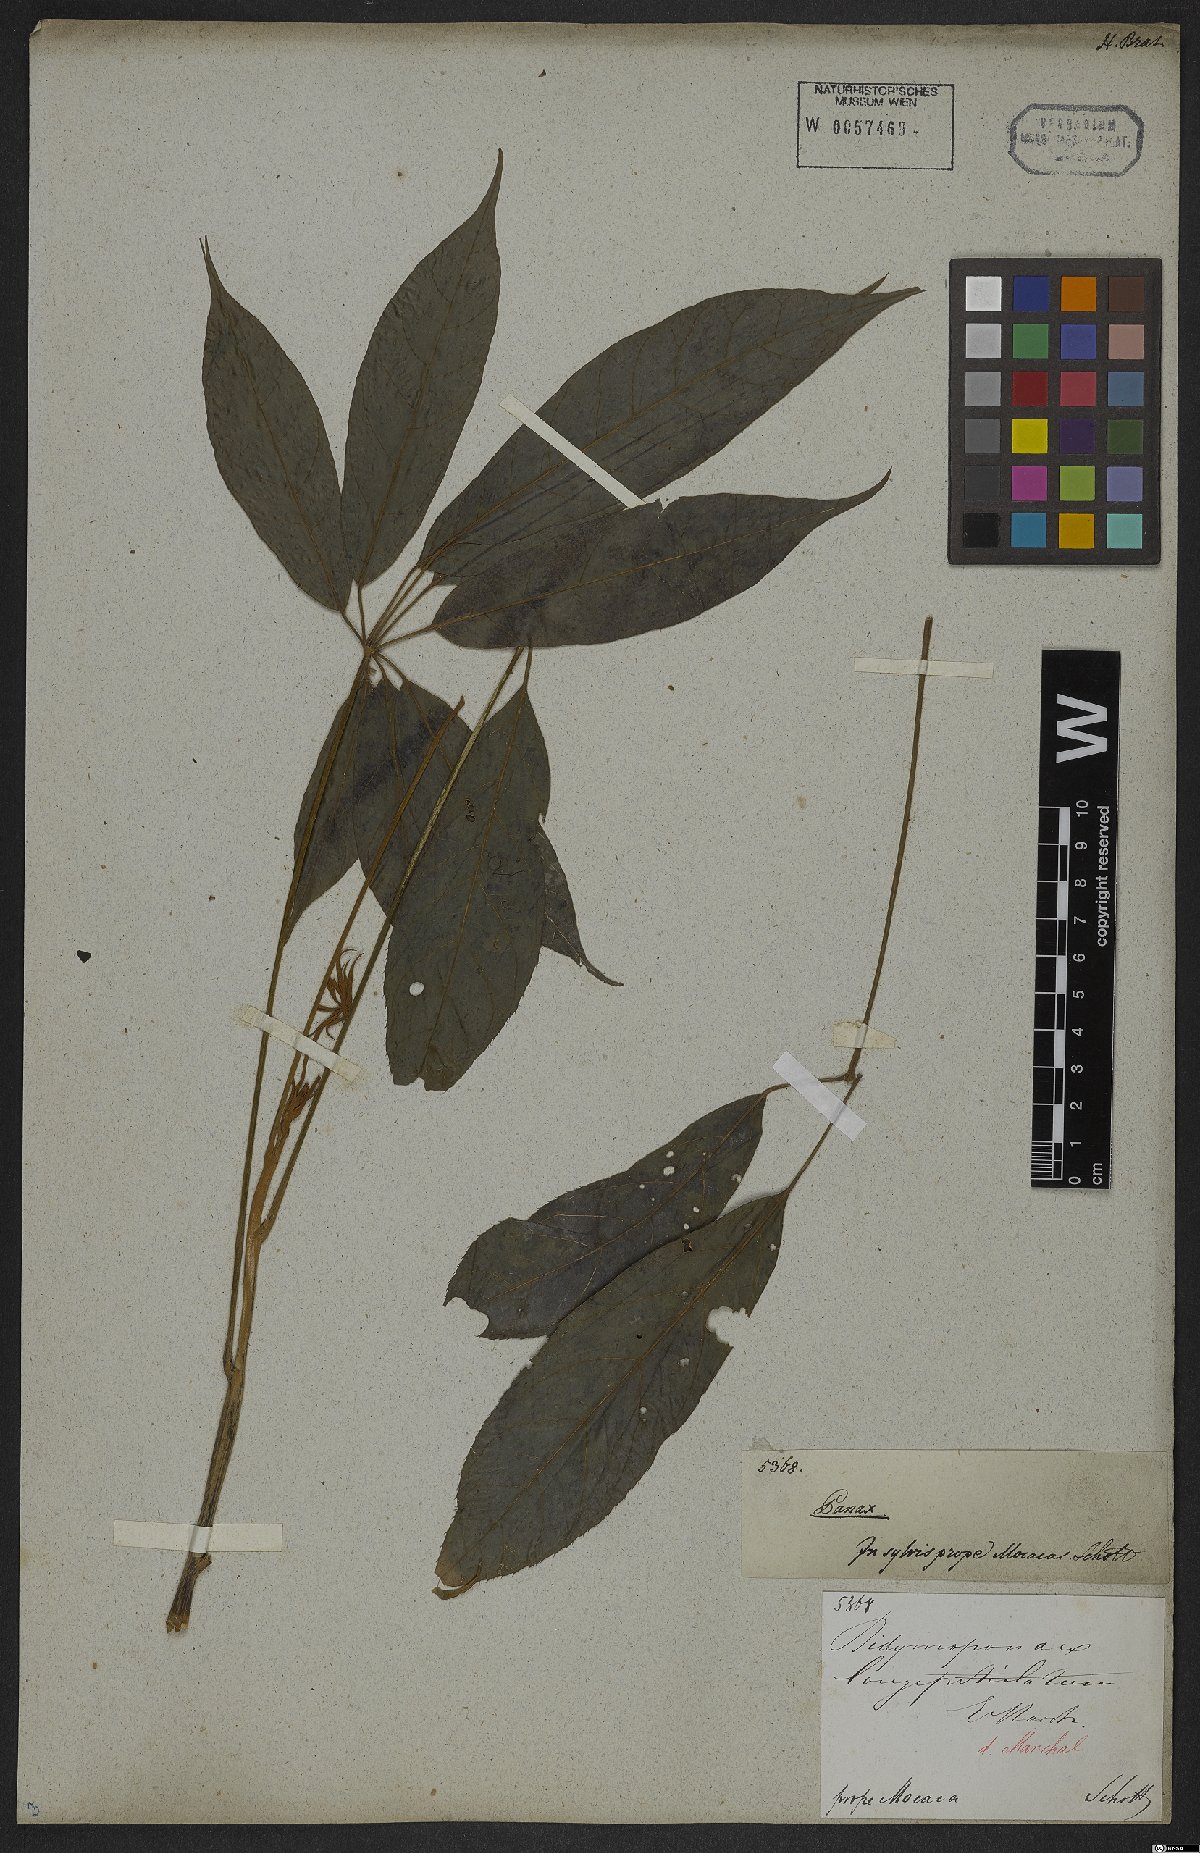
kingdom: Plantae
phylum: Tracheophyta
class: Magnoliopsida
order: Apiales
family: Araliaceae
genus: Didymopanax
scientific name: Didymopanax longepetiolatus
